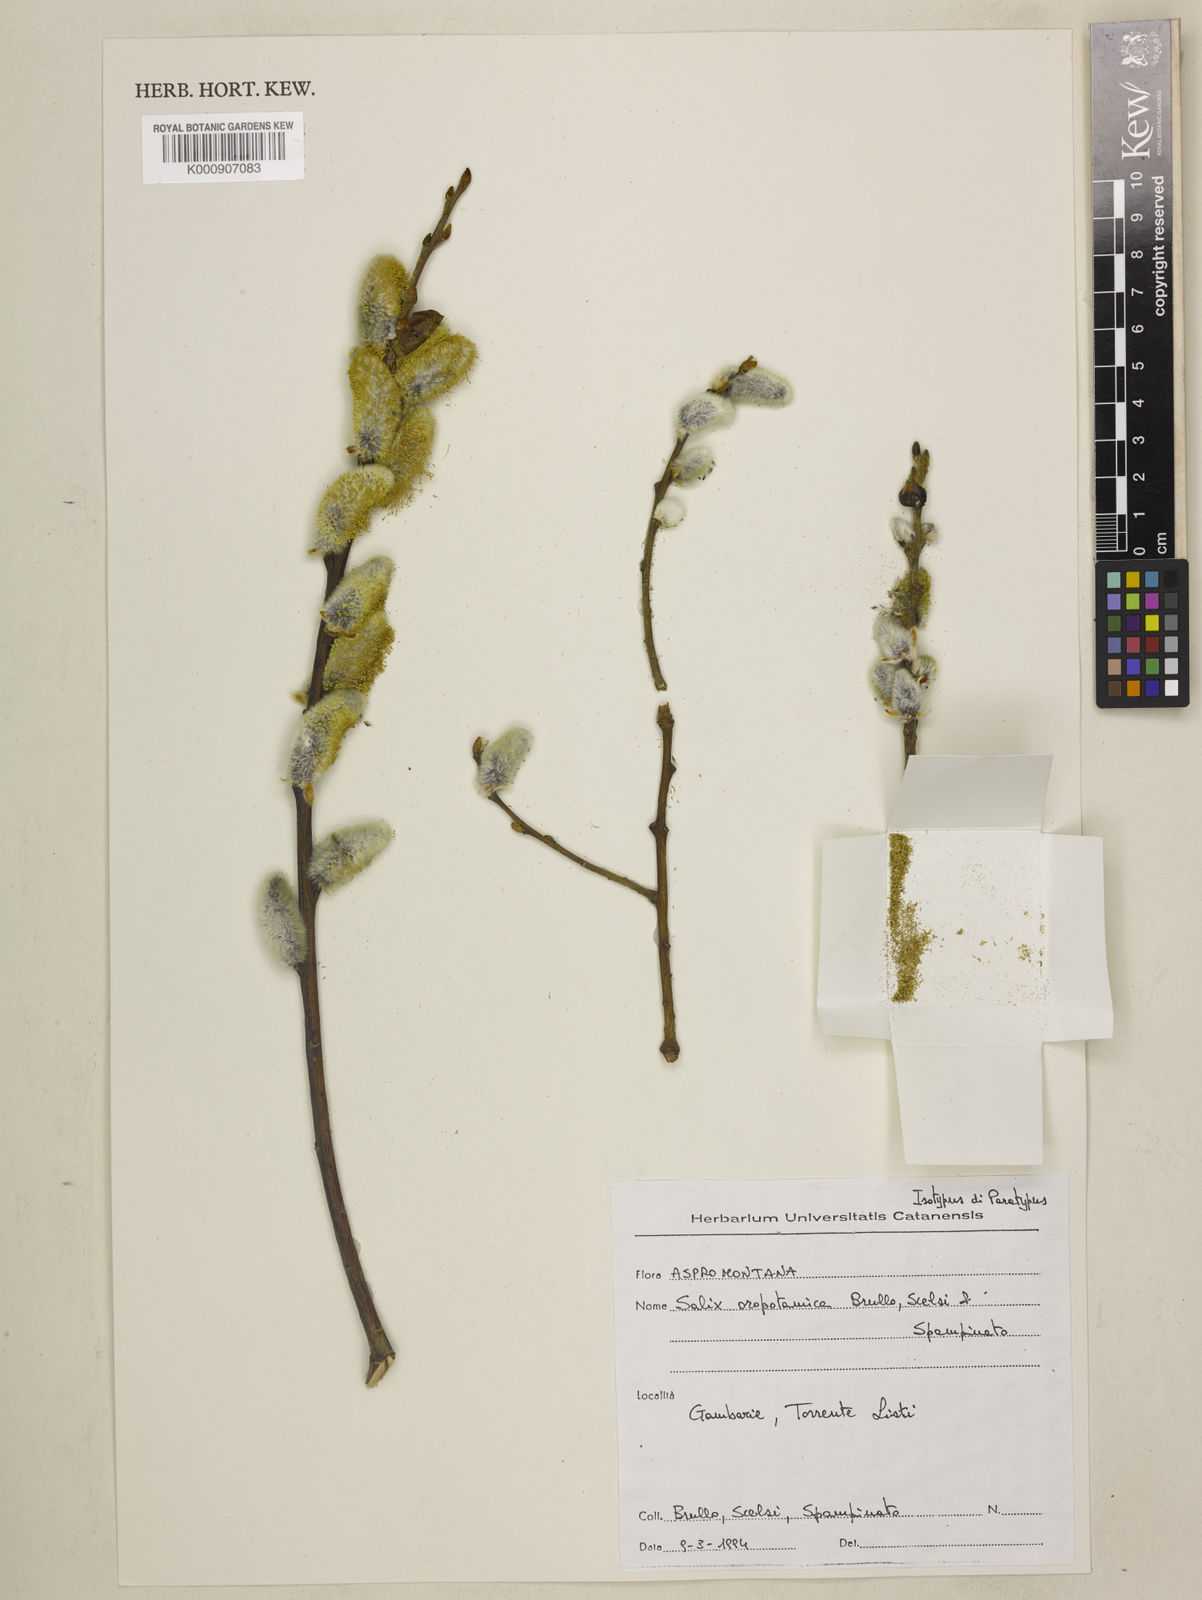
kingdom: Plantae
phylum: Tracheophyta
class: Magnoliopsida
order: Malpighiales
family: Salicaceae
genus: Salix
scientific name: Salix
